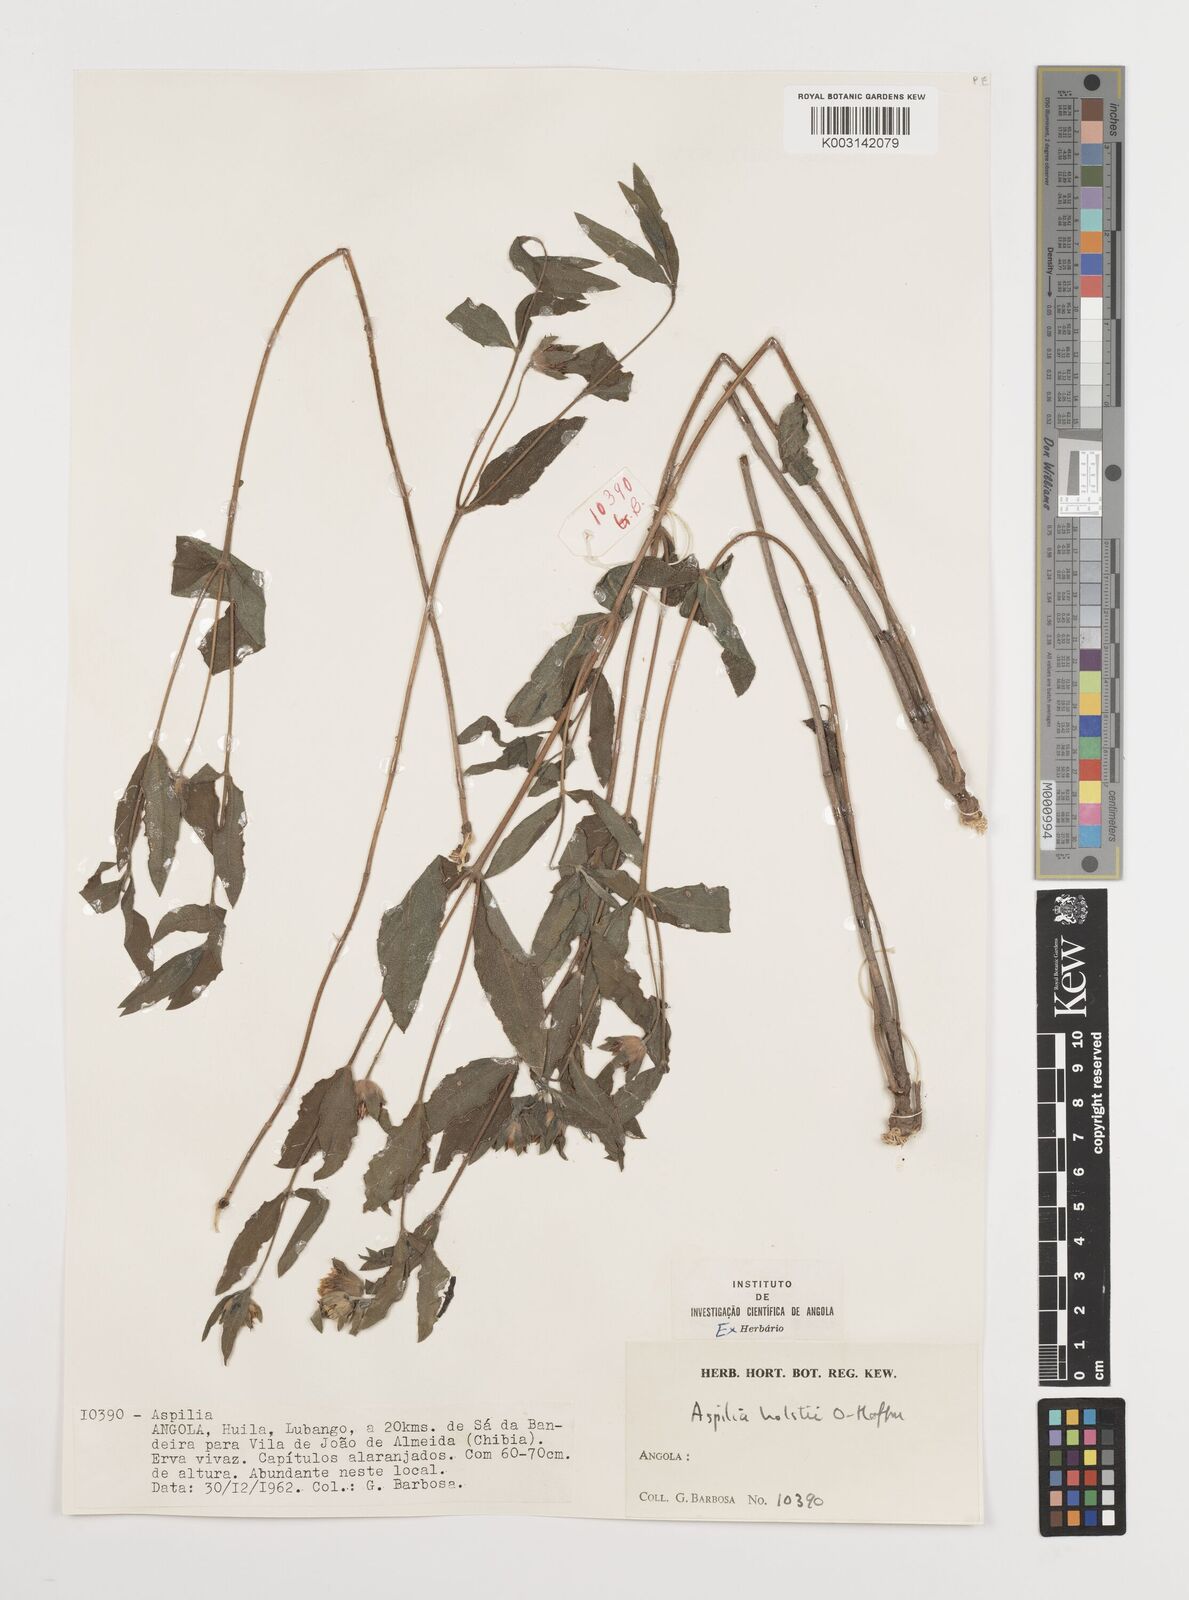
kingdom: Plantae
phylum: Tracheophyta
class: Magnoliopsida
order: Asterales
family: Asteraceae
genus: Aspilia
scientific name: Aspilia angolensis
